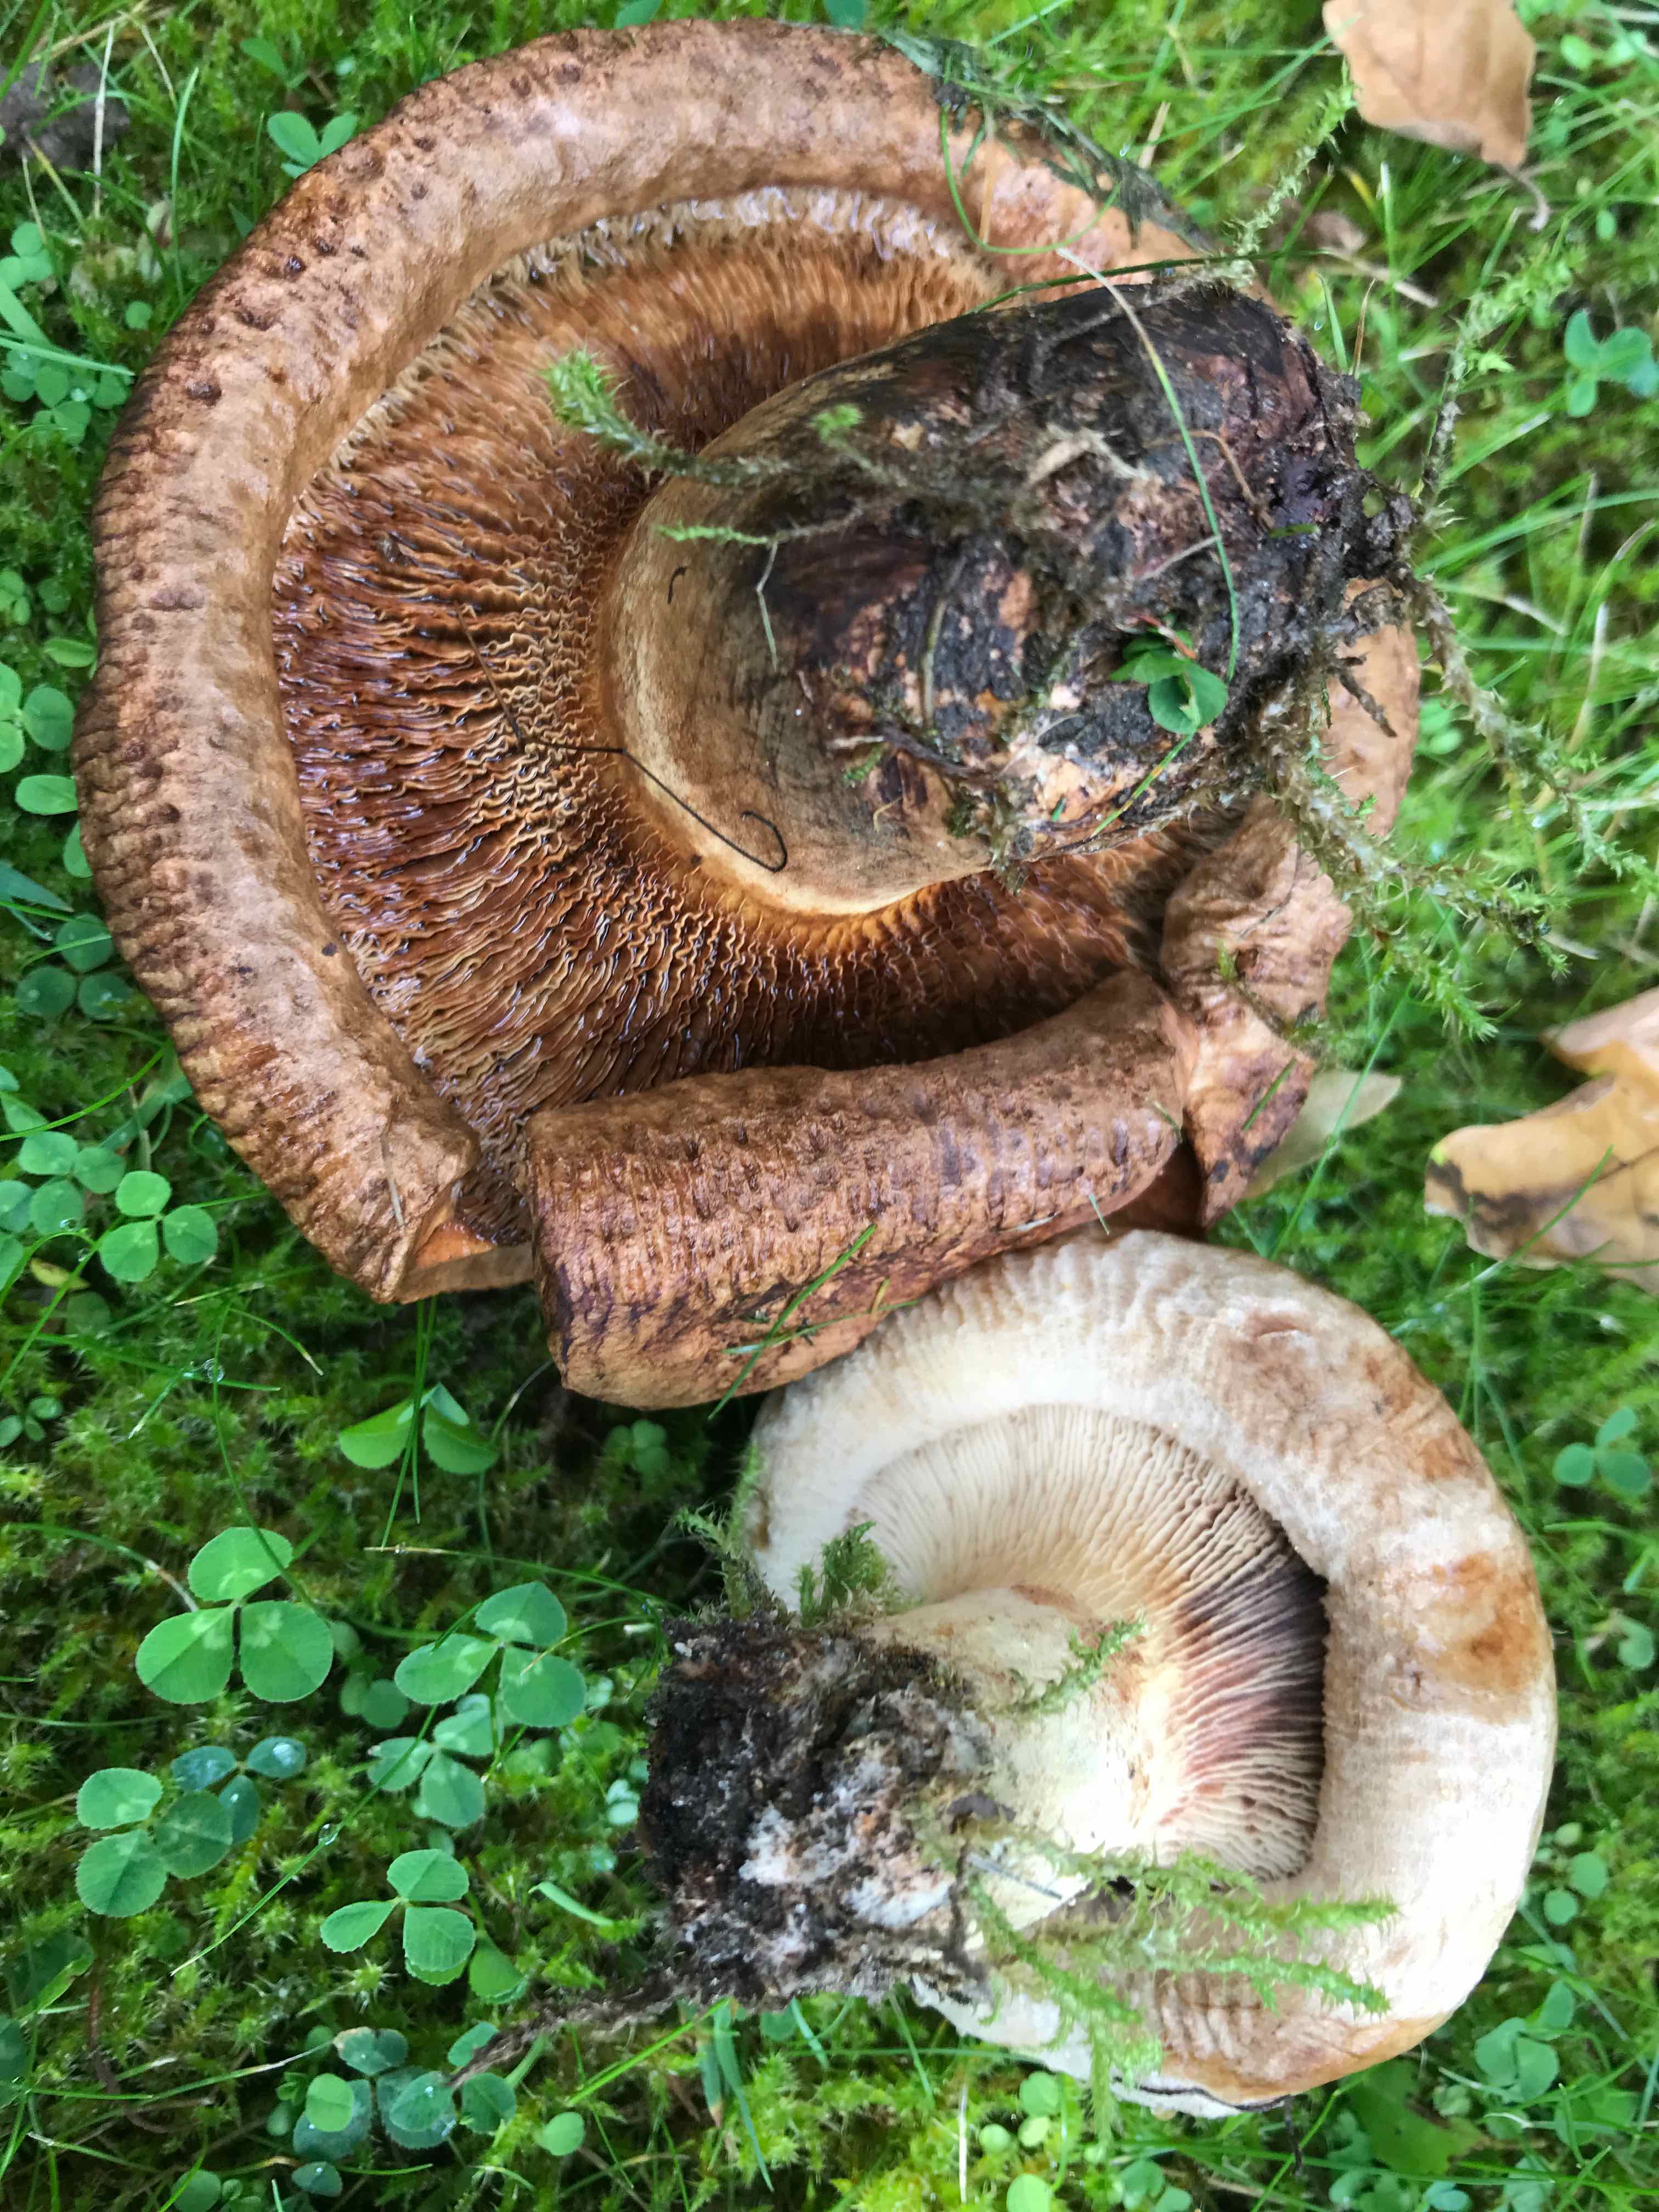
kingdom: Fungi
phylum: Basidiomycota
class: Agaricomycetes
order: Boletales
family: Paxillaceae
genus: Paxillus
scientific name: Paxillus
